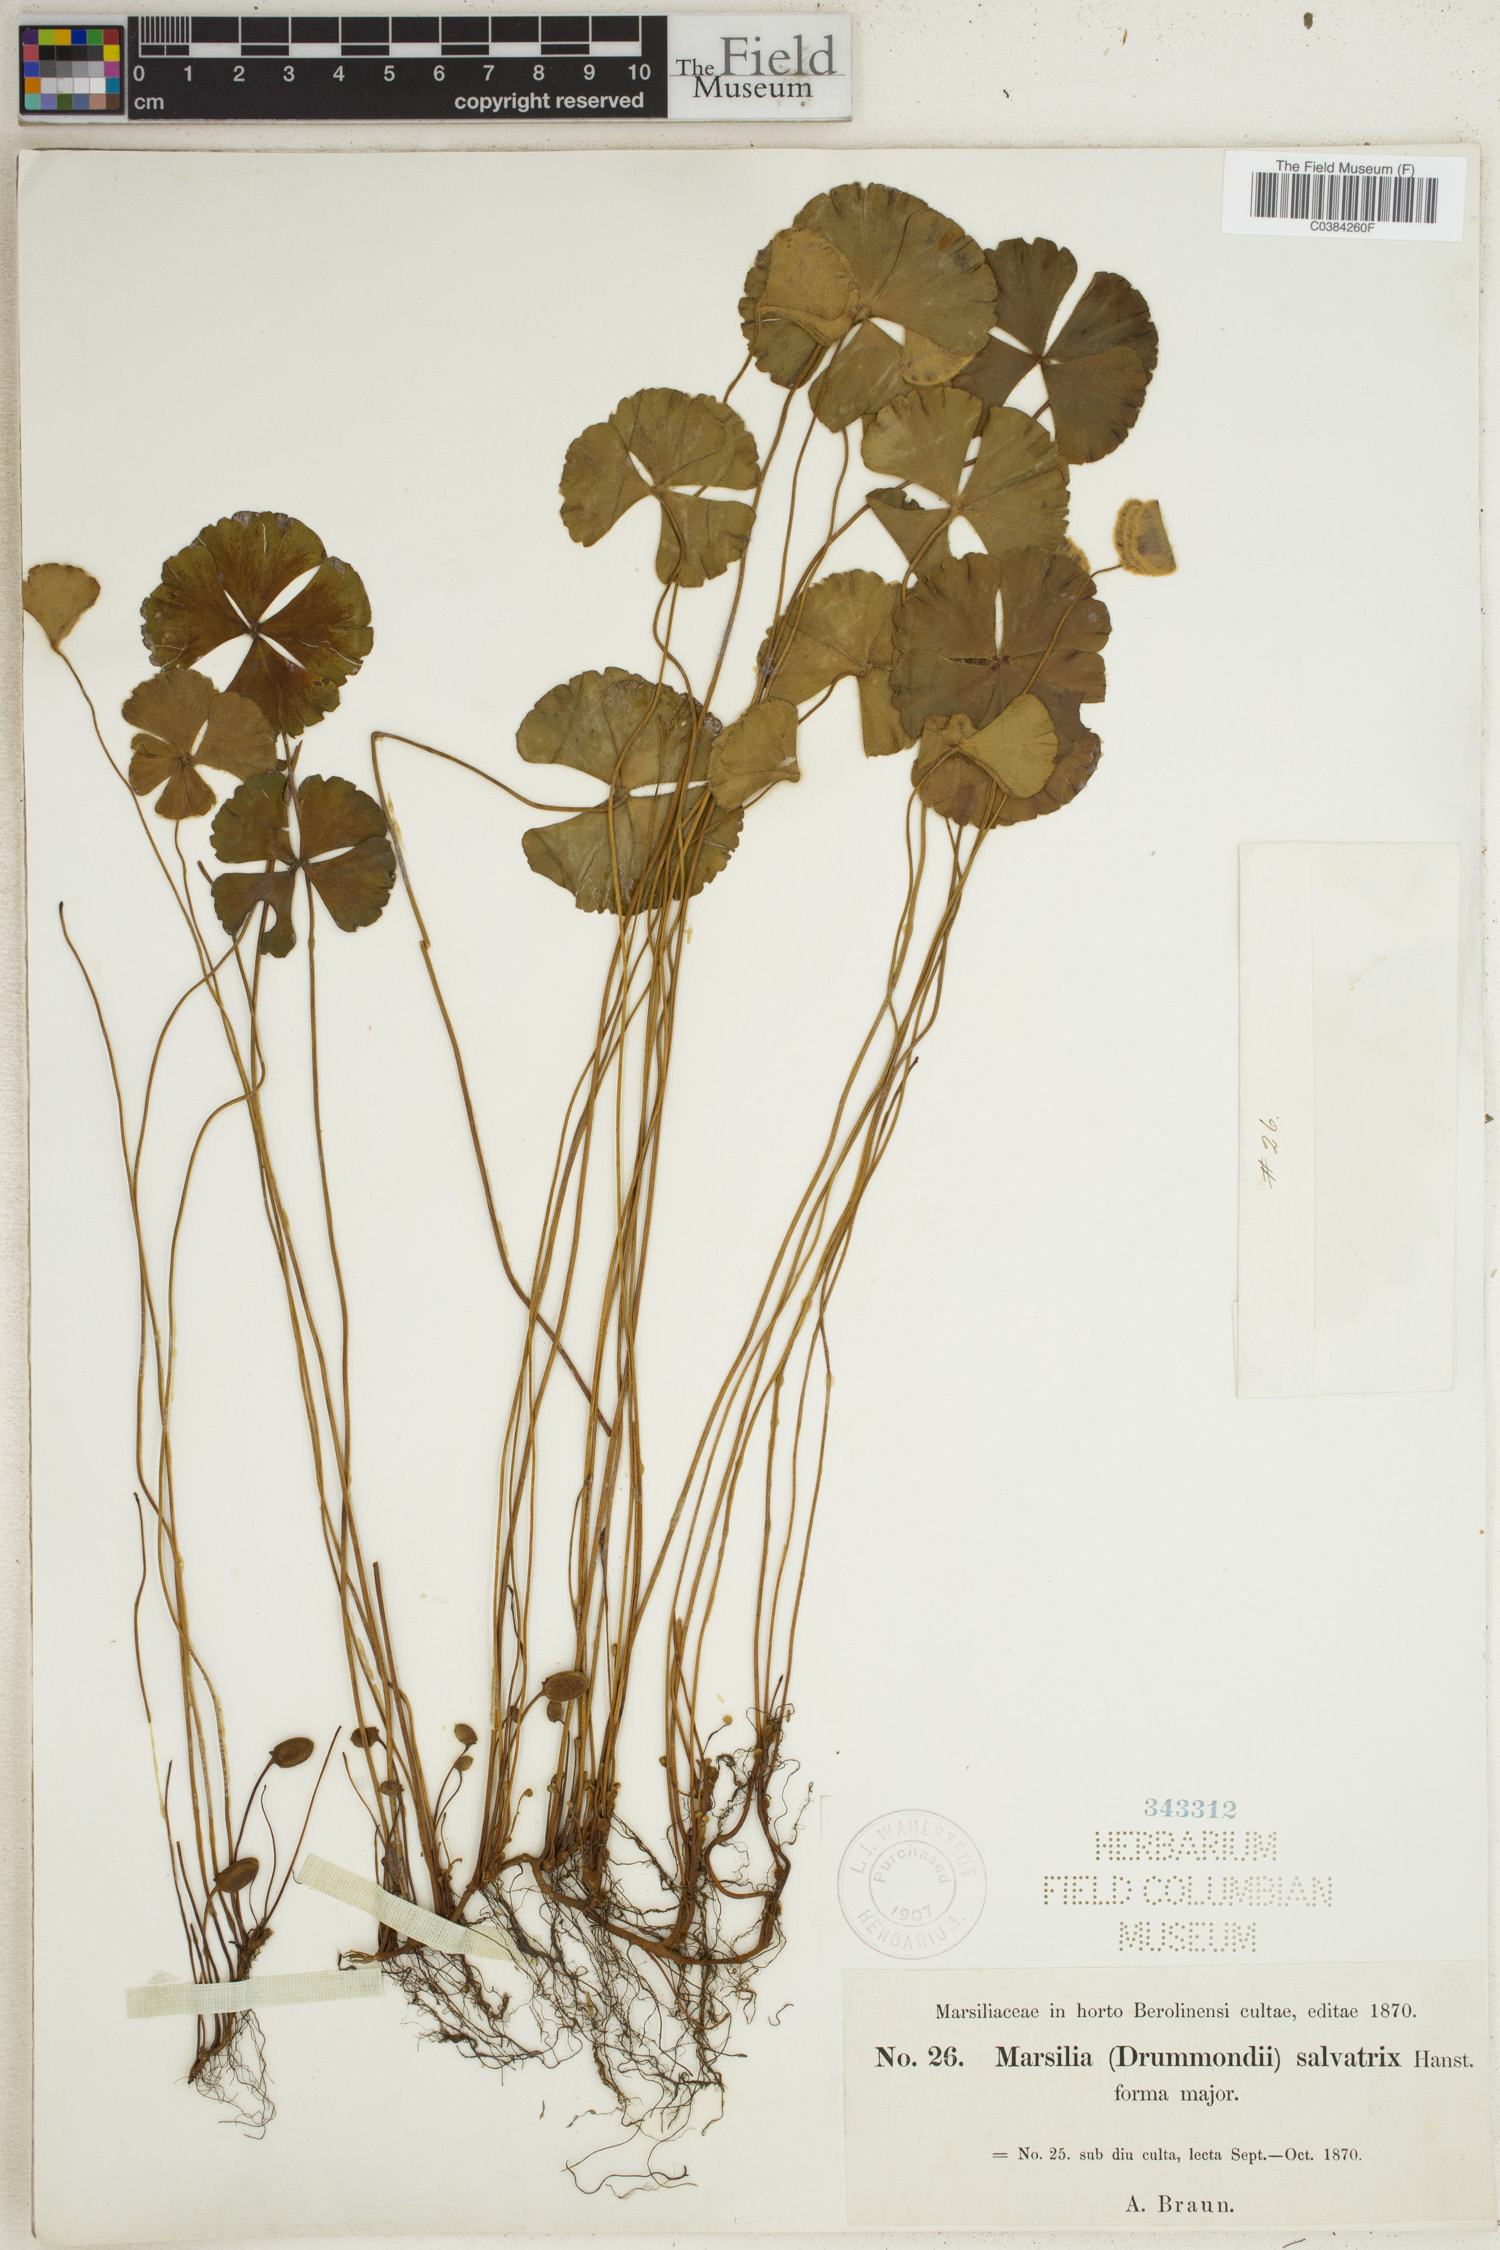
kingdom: Plantae
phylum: Tracheophyta
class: Polypodiopsida
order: Salviniales
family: Marsileaceae
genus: Marsilea
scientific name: Marsilea drummondii
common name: Nardoo
